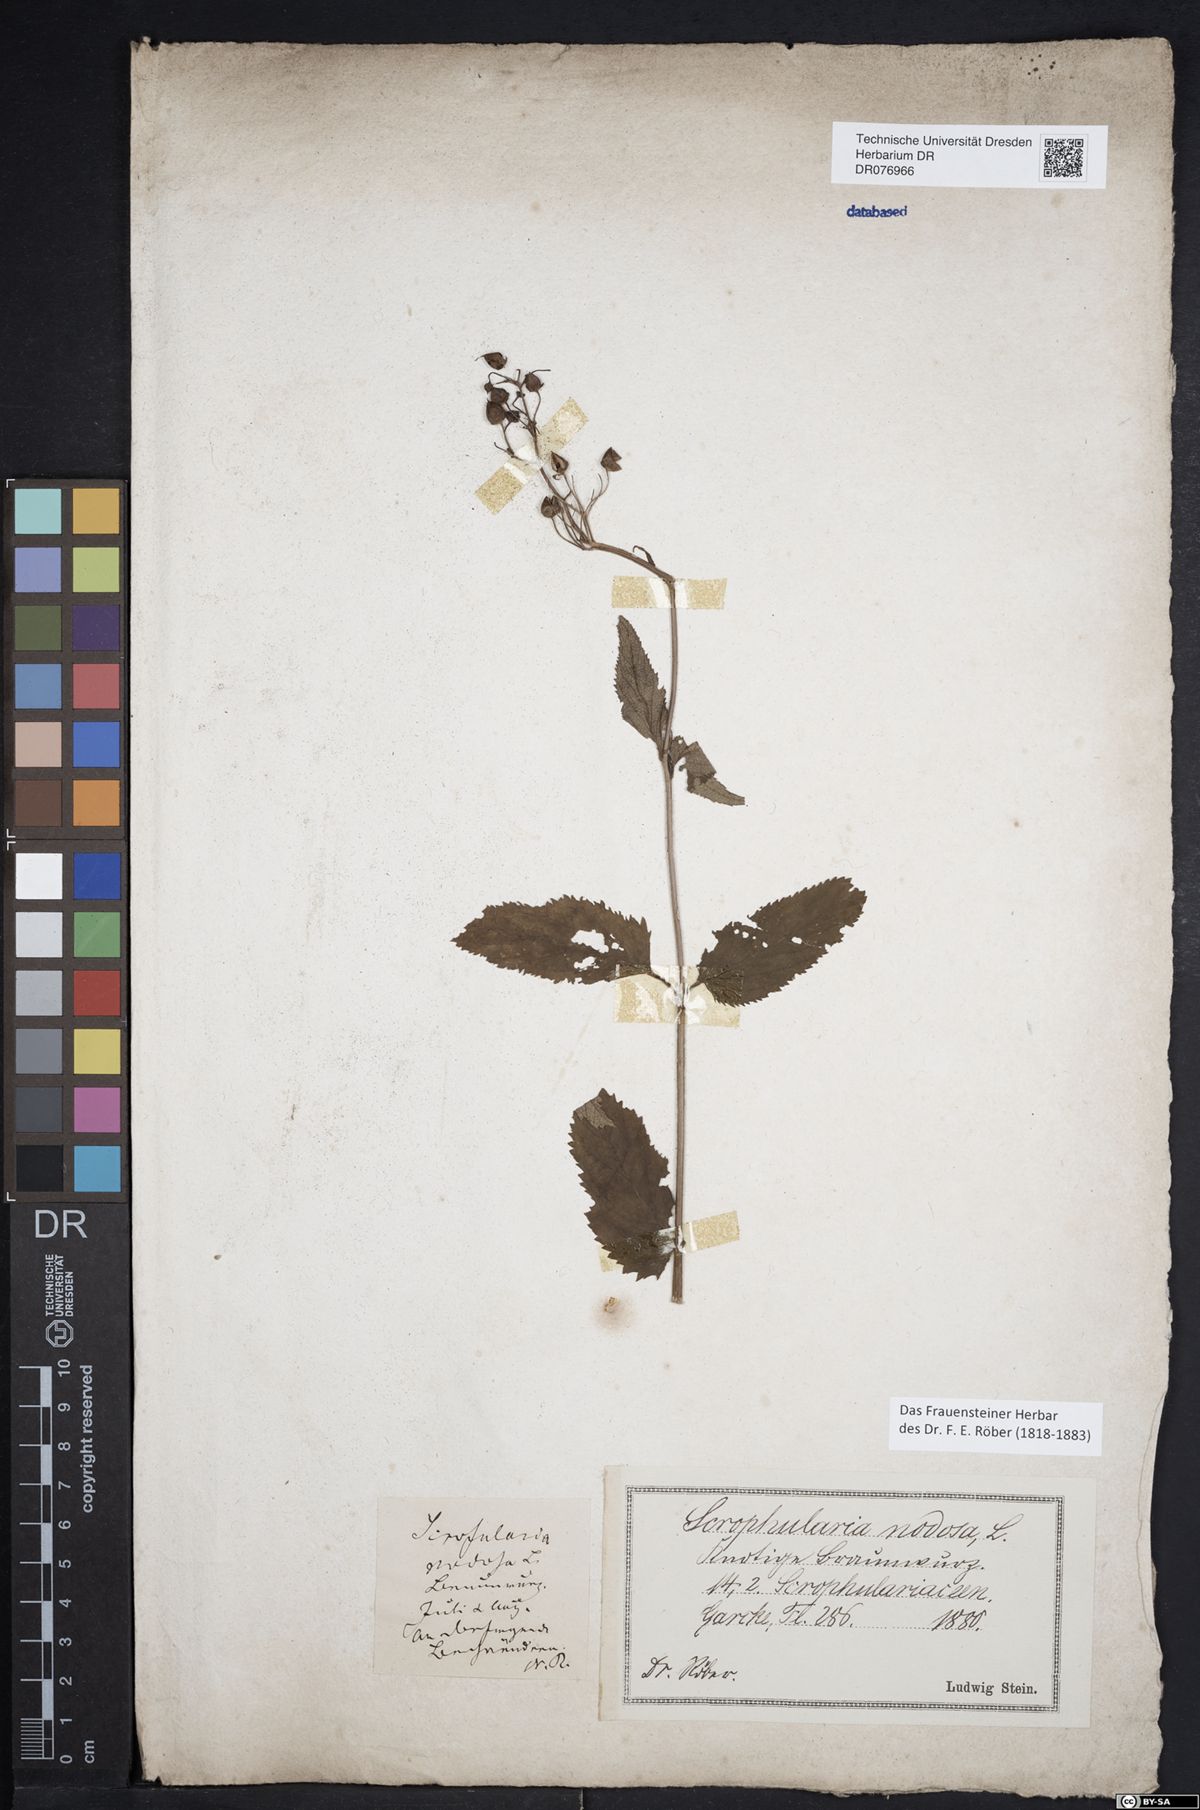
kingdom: Plantae
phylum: Tracheophyta
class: Magnoliopsida
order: Lamiales
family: Scrophulariaceae
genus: Scrophularia
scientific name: Scrophularia nodosa
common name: Common figwort
